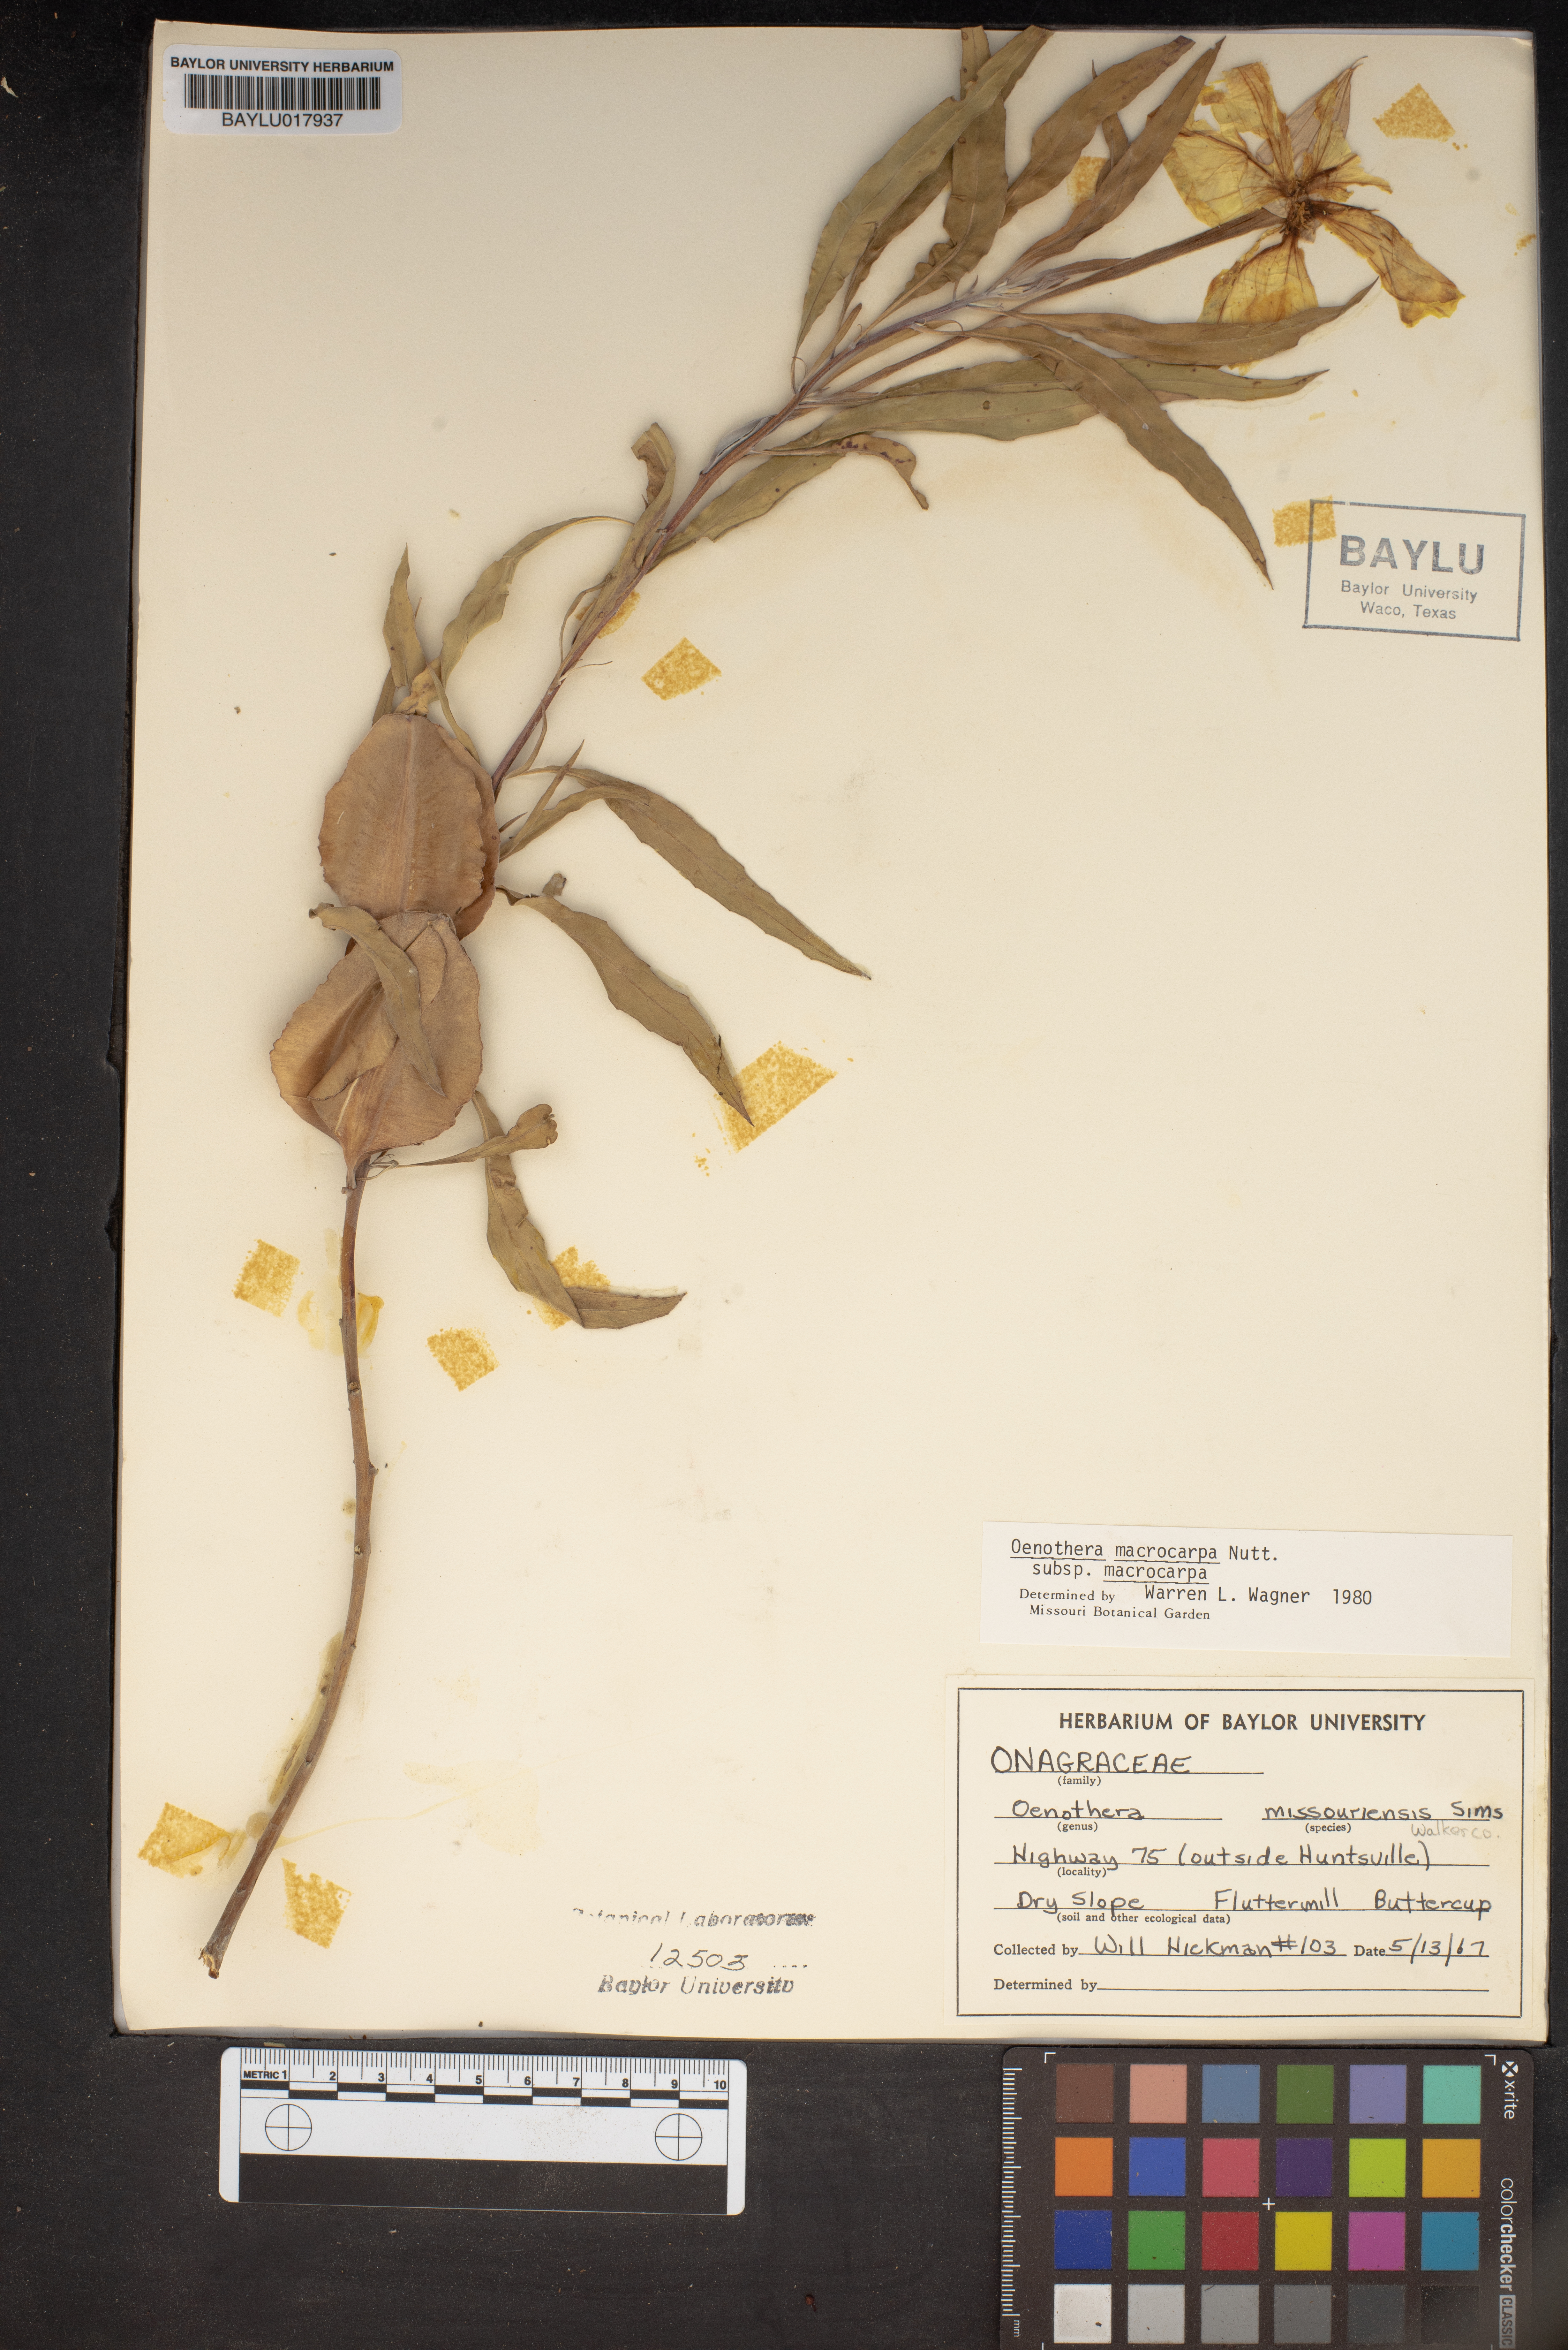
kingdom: Plantae
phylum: Tracheophyta
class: Magnoliopsida
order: Myrtales
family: Onagraceae
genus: Oenothera
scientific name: Oenothera macrocarpa
